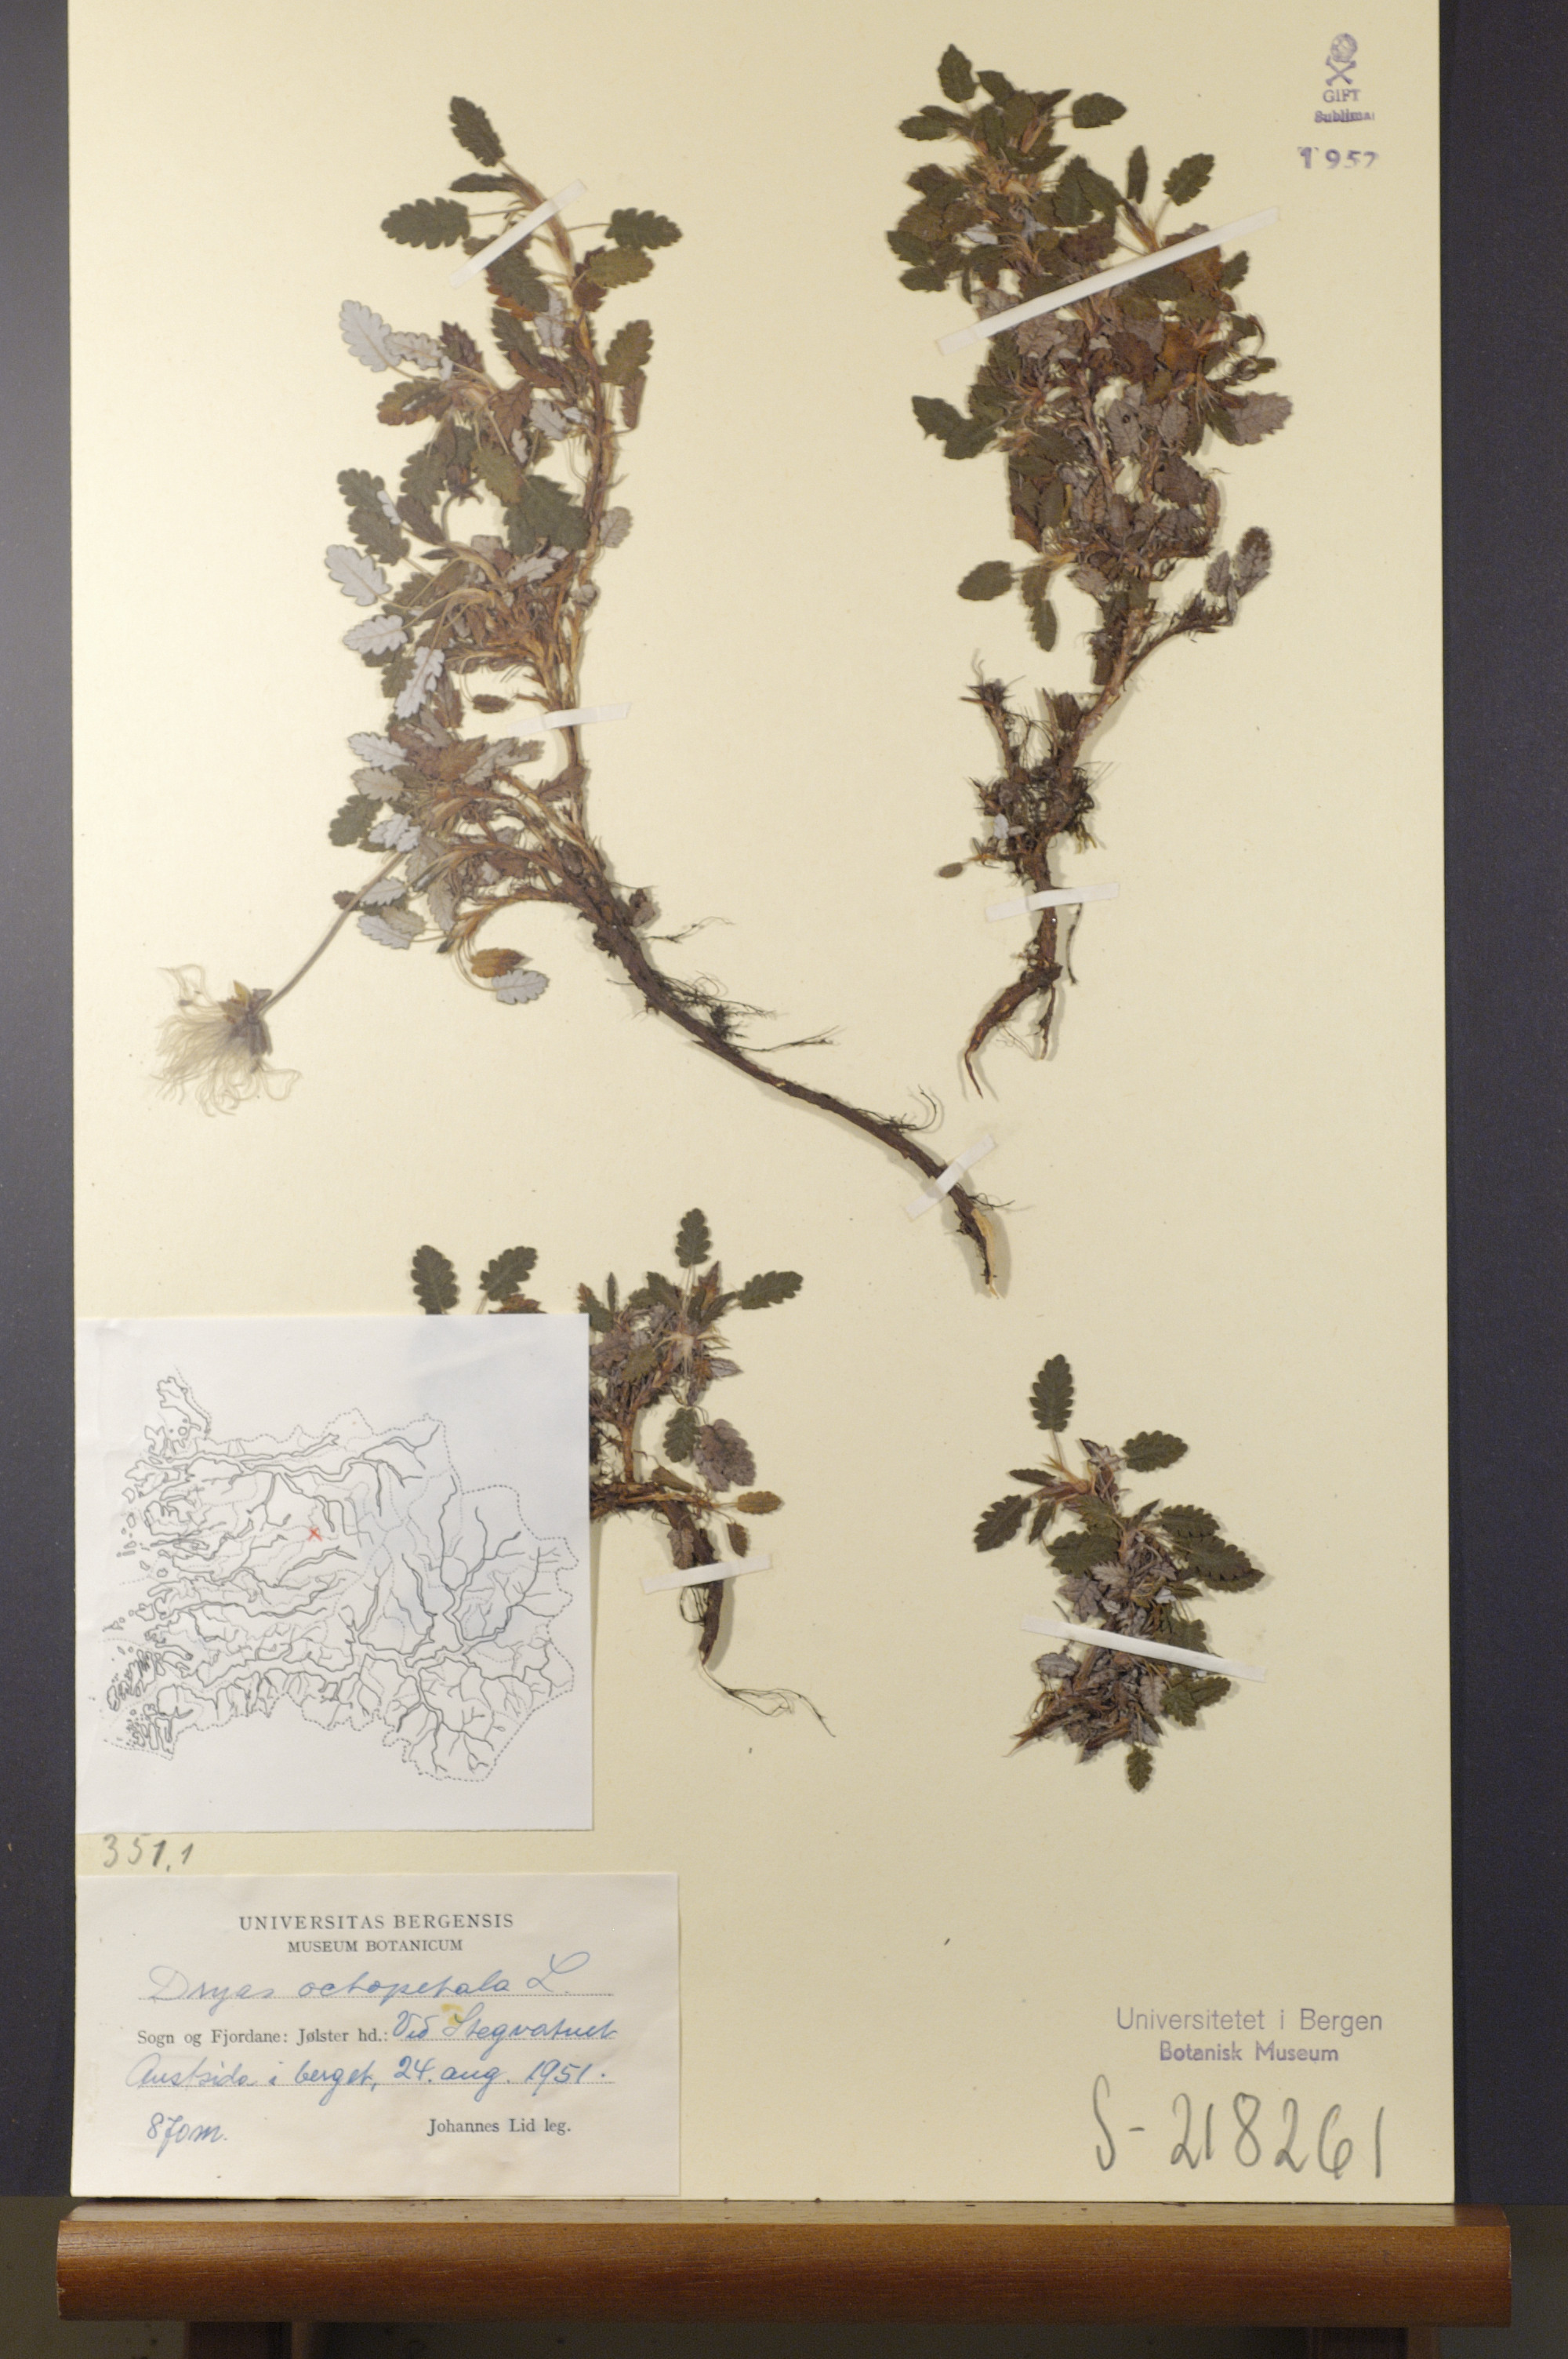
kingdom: Plantae
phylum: Tracheophyta
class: Magnoliopsida
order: Rosales
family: Rosaceae
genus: Dryas
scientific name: Dryas octopetala
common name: Eight-petal mountain-avens
